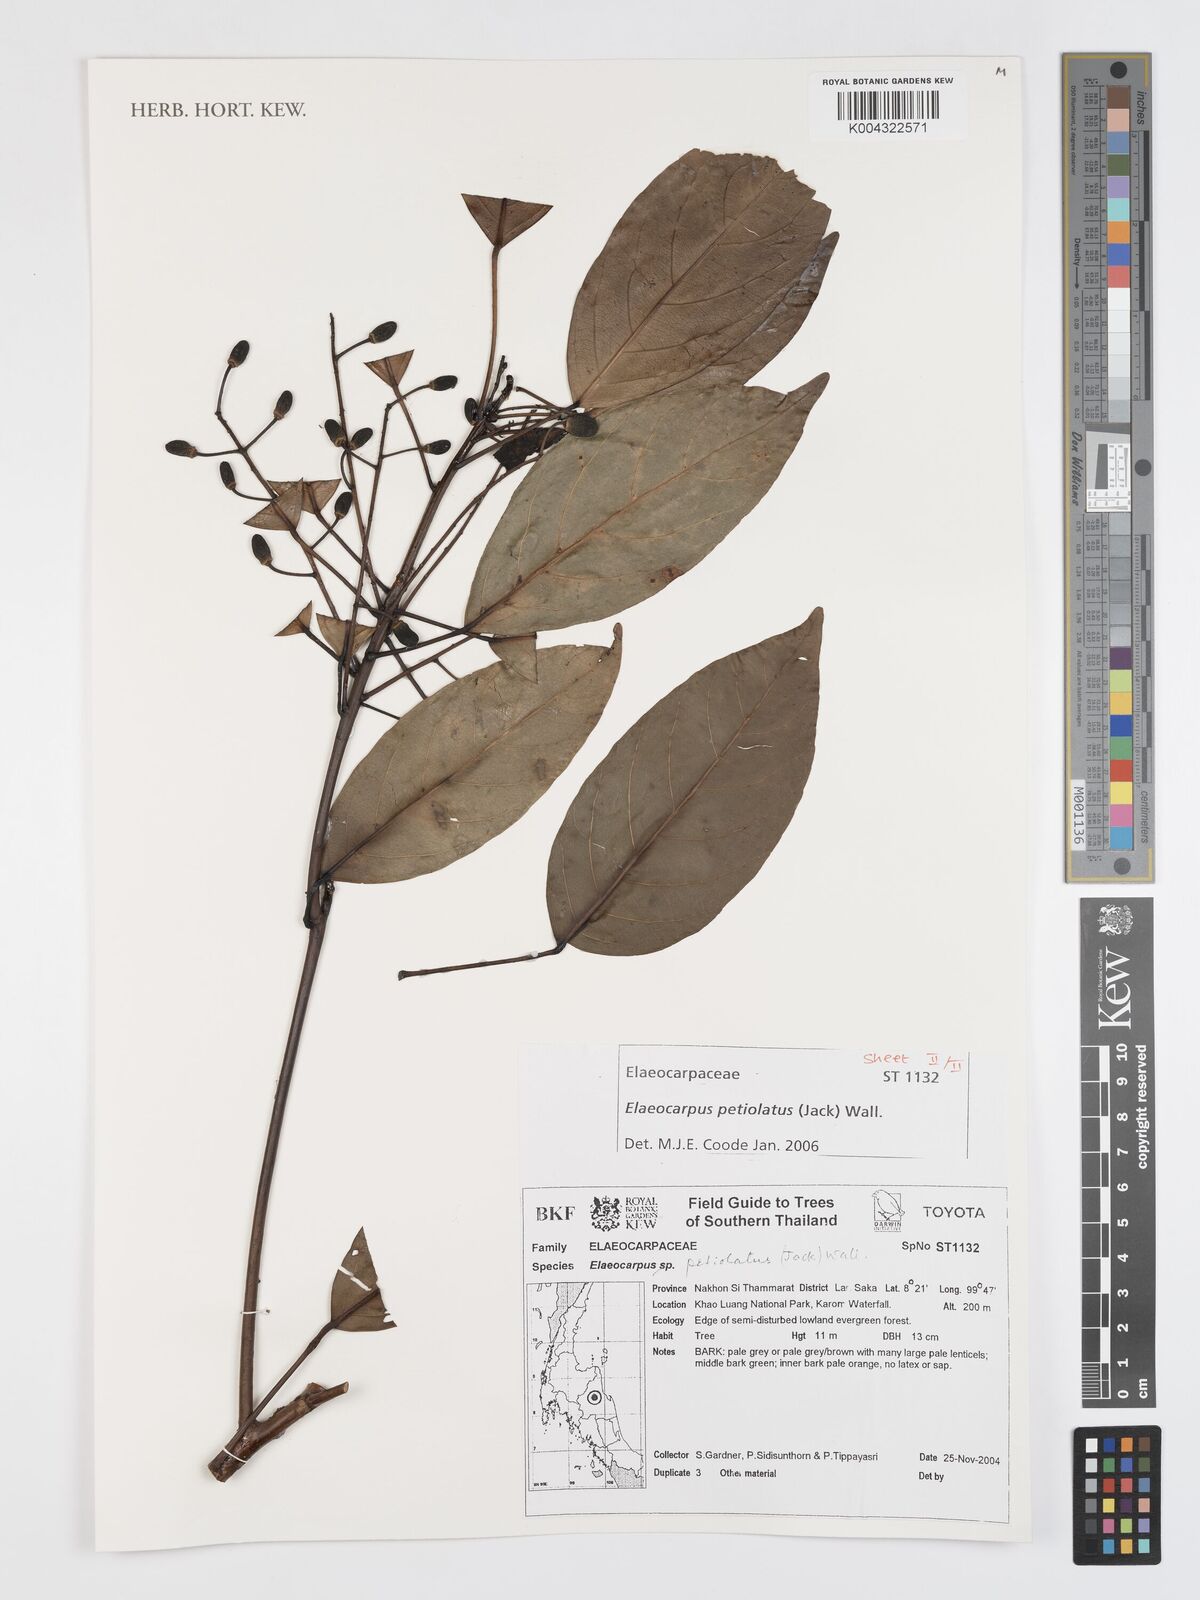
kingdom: Plantae
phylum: Tracheophyta
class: Magnoliopsida
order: Oxalidales
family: Elaeocarpaceae
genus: Elaeocarpus
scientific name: Elaeocarpus petiolatus
